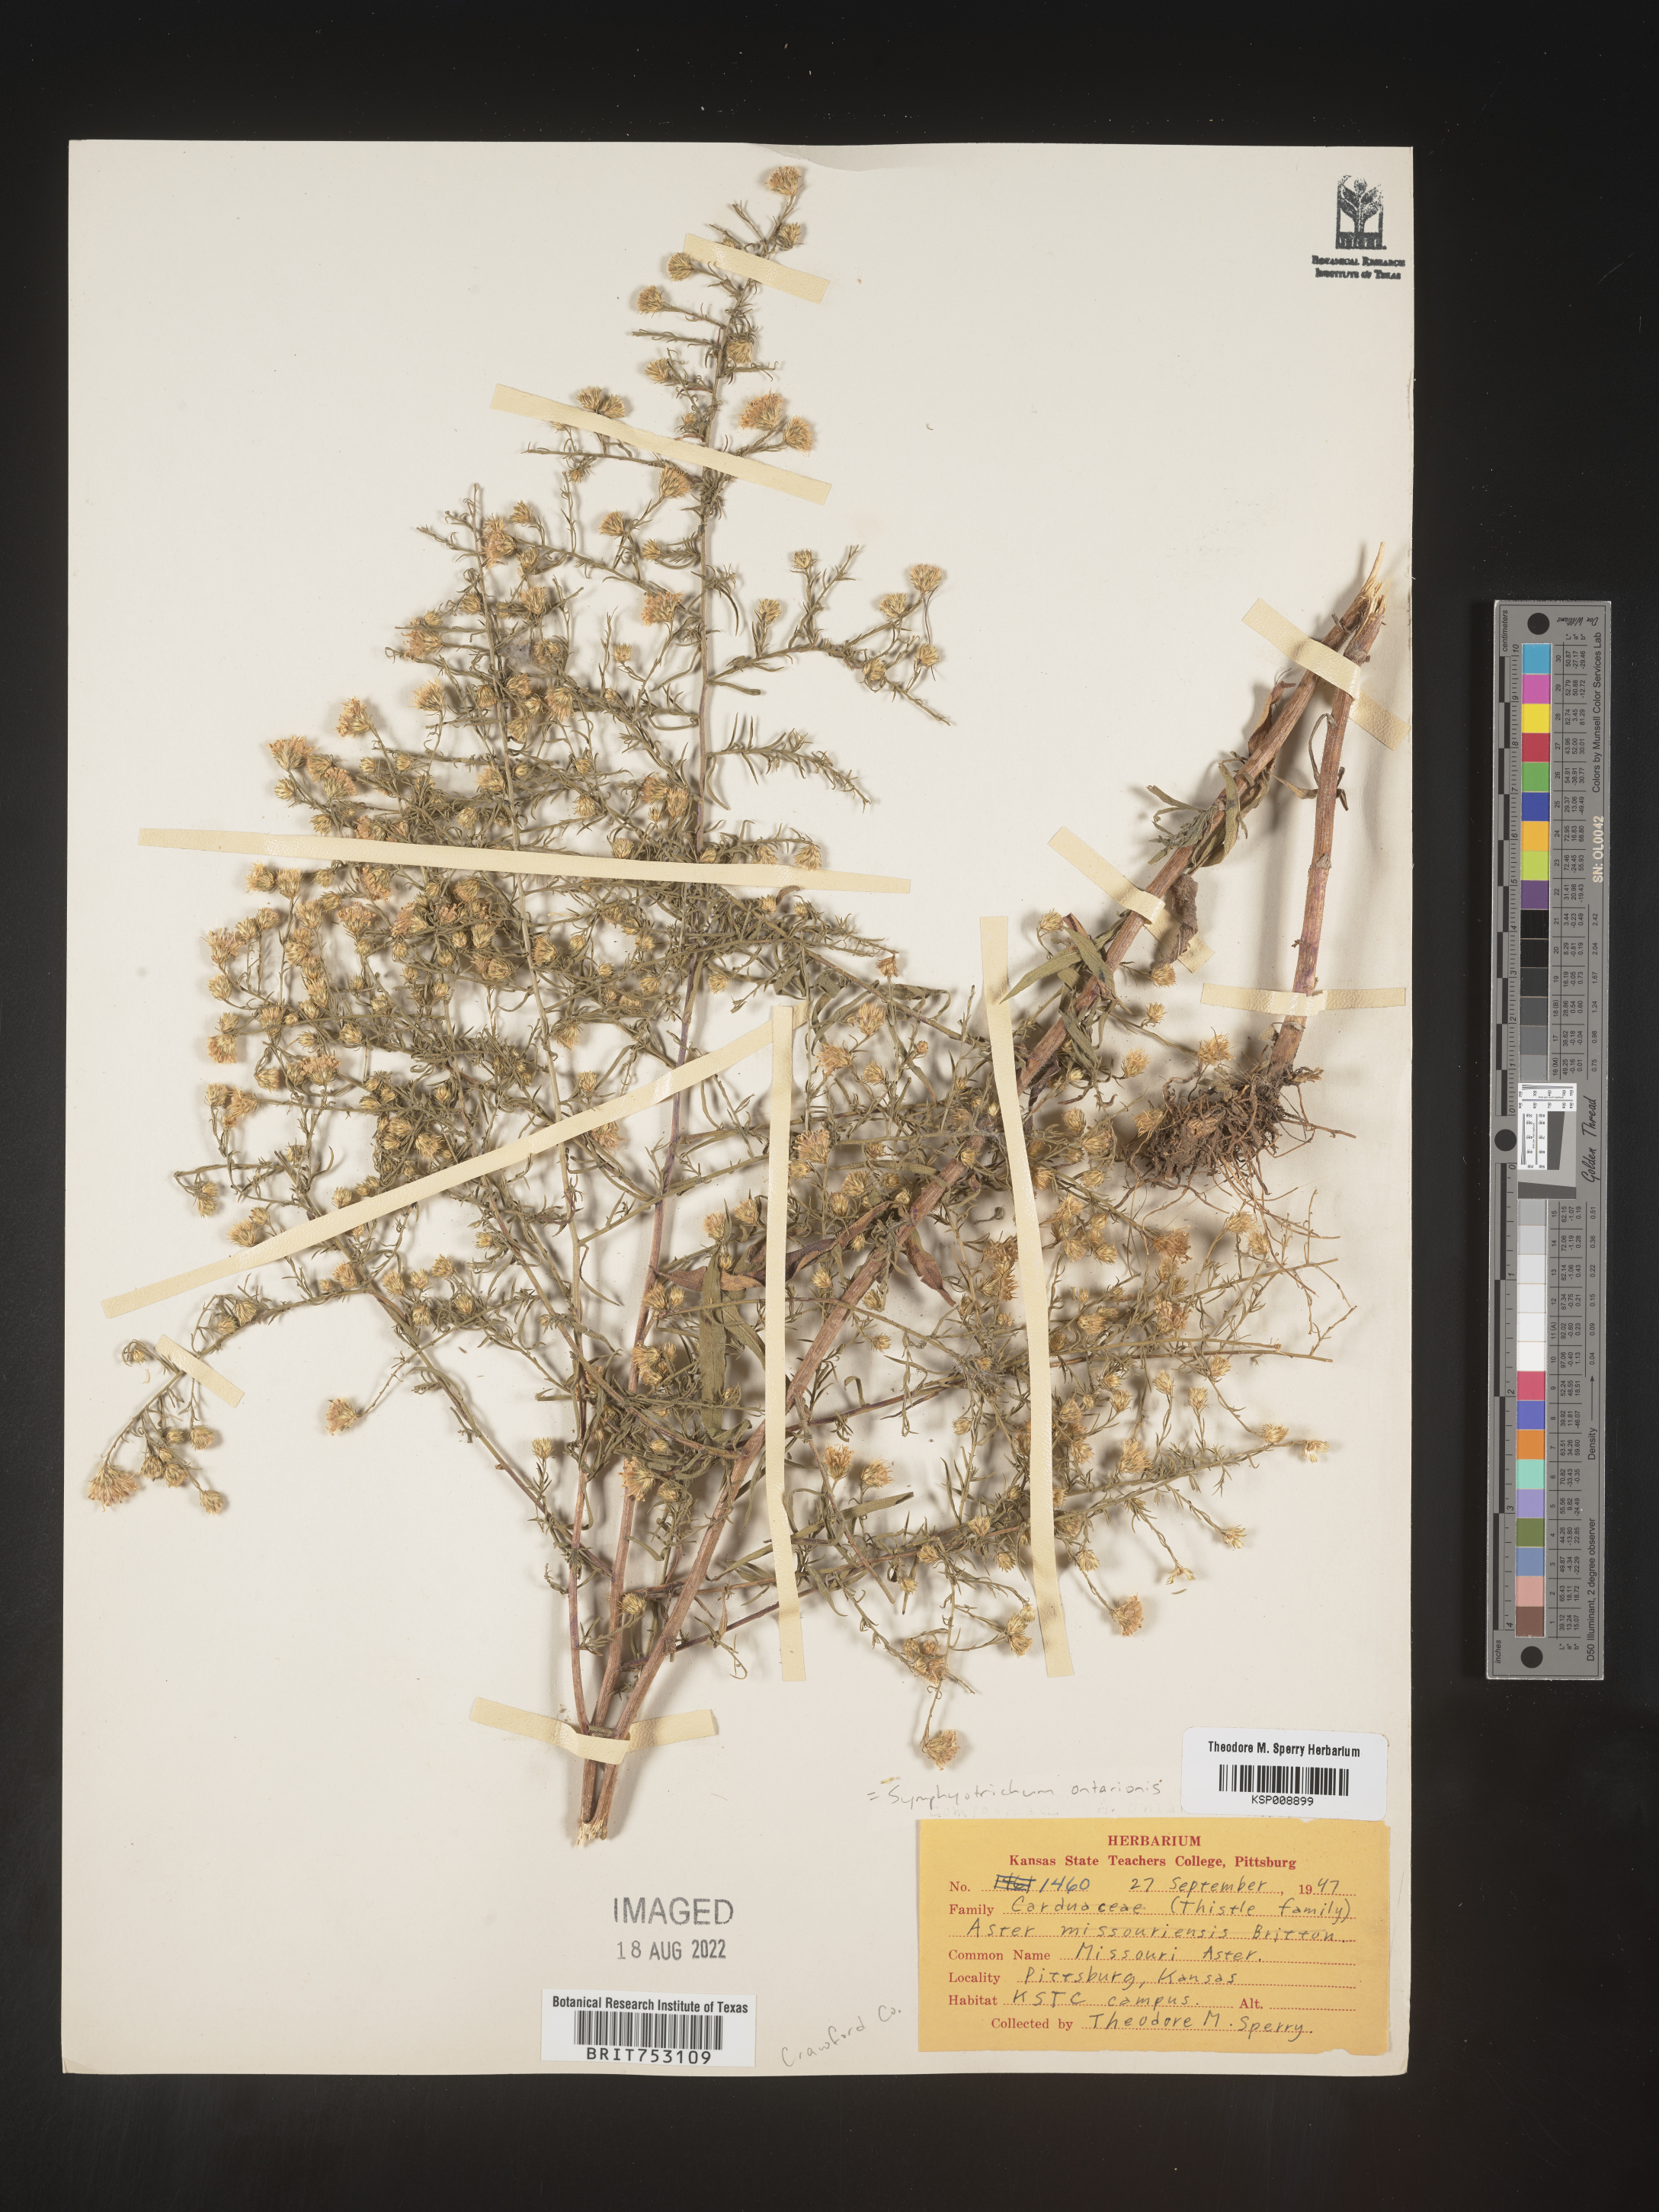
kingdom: Plantae
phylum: Tracheophyta
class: Magnoliopsida
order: Asterales
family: Asteraceae
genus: Symphyotrichum
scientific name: Symphyotrichum ontarionis
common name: Bottomland aster
